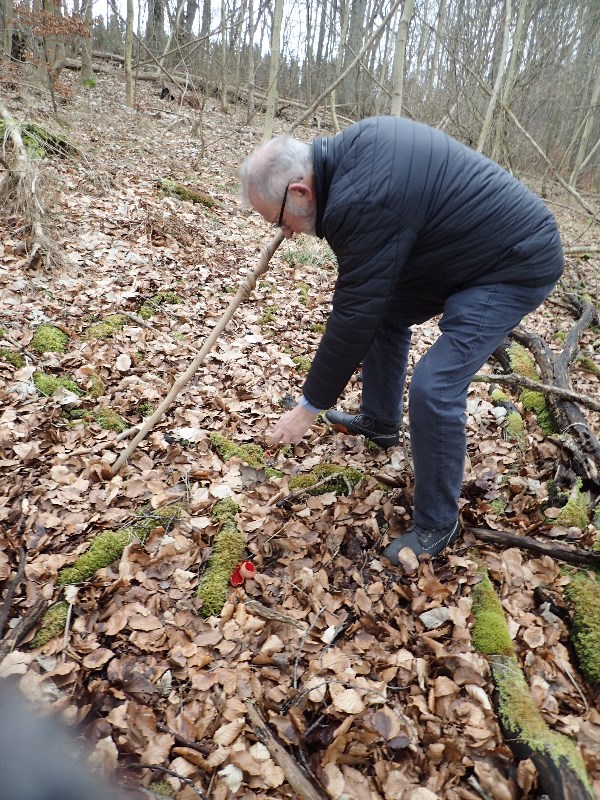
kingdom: Fungi
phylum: Ascomycota
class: Pezizomycetes
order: Pezizales
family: Sarcoscyphaceae
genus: Sarcoscypha
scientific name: Sarcoscypha coccinea
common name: skarlagen-pragtbæger
